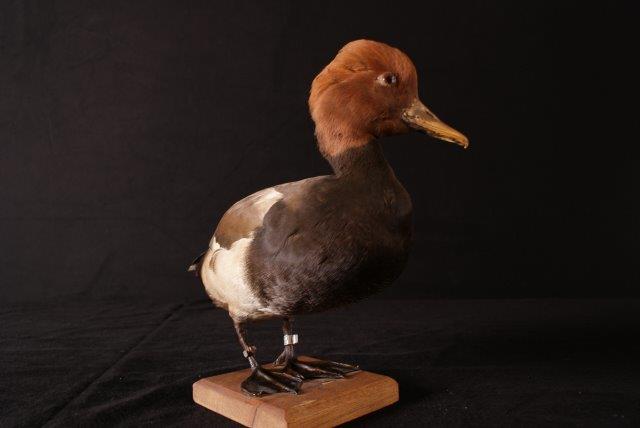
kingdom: Animalia
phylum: Chordata
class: Aves
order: Anseriformes
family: Anatidae
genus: Netta
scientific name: Netta rufina
